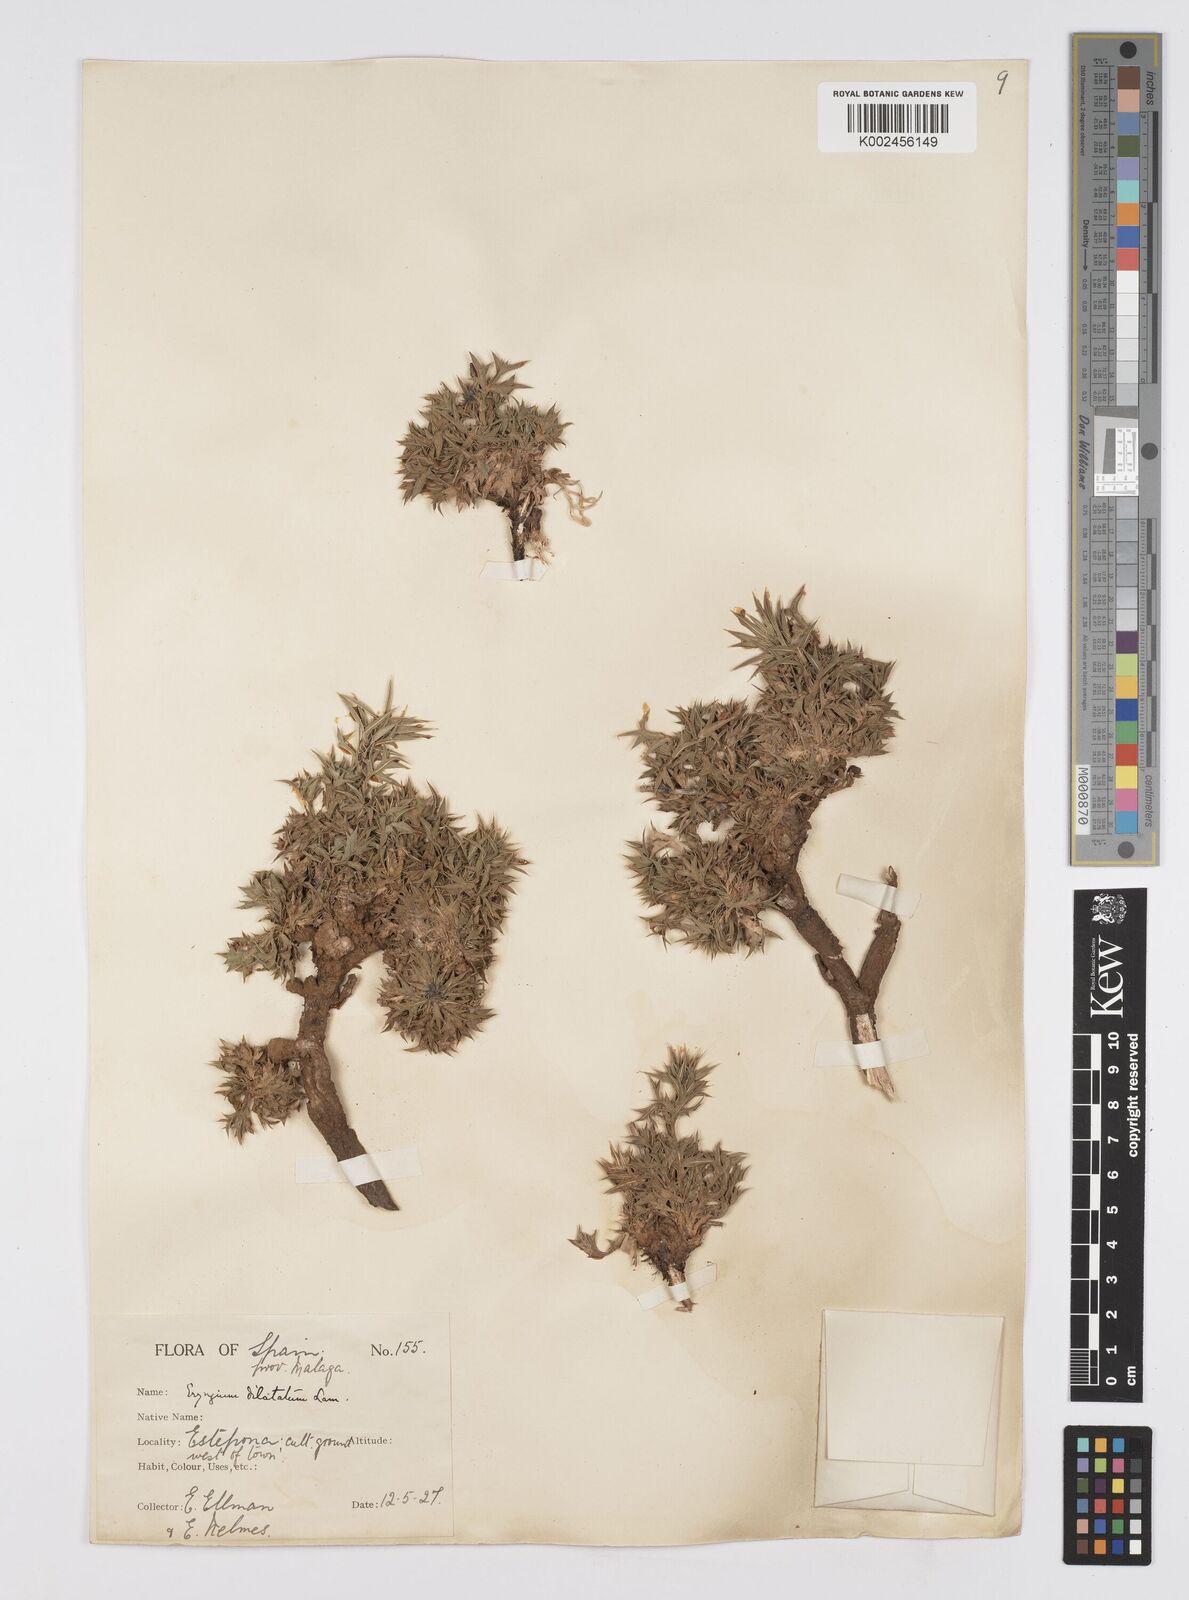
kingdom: Plantae
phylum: Tracheophyta
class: Magnoliopsida
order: Apiales
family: Apiaceae
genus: Eryngium
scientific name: Eryngium dilatatum
